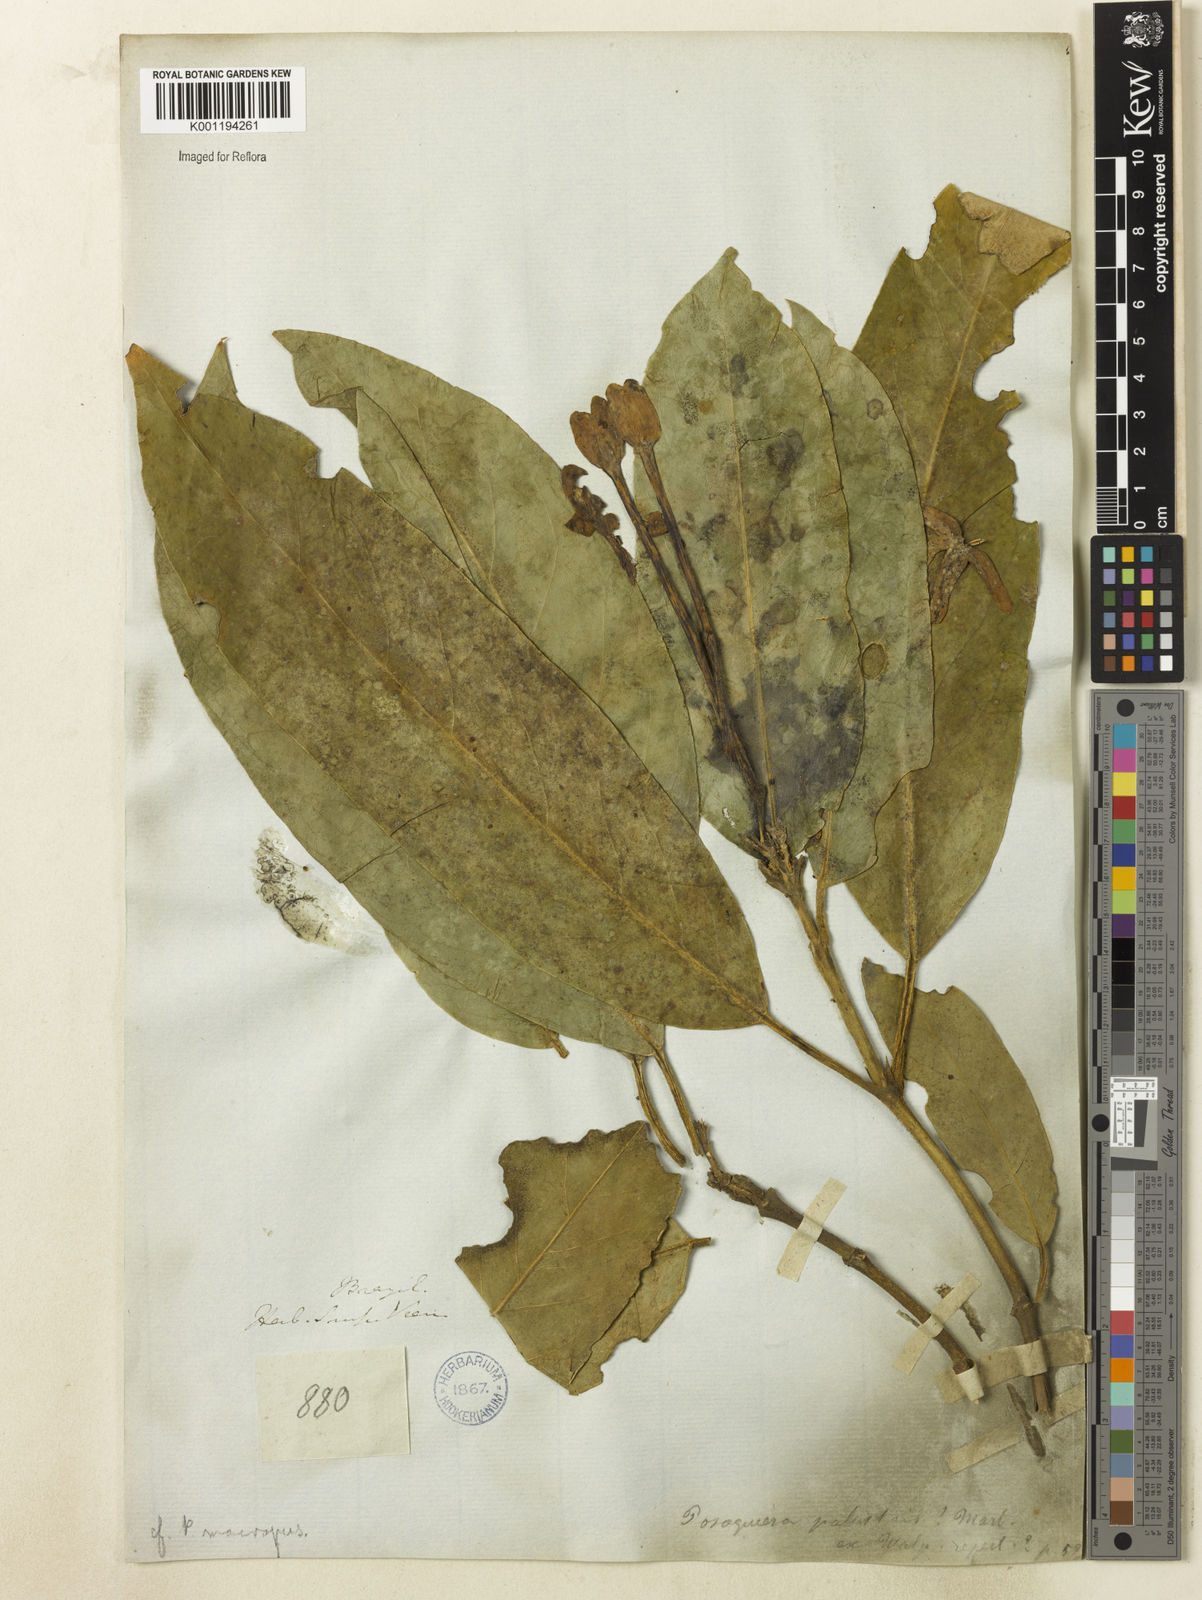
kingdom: Plantae
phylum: Tracheophyta
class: Magnoliopsida
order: Gentianales
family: Rubiaceae
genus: Posoqueria
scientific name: Posoqueria latifolia
